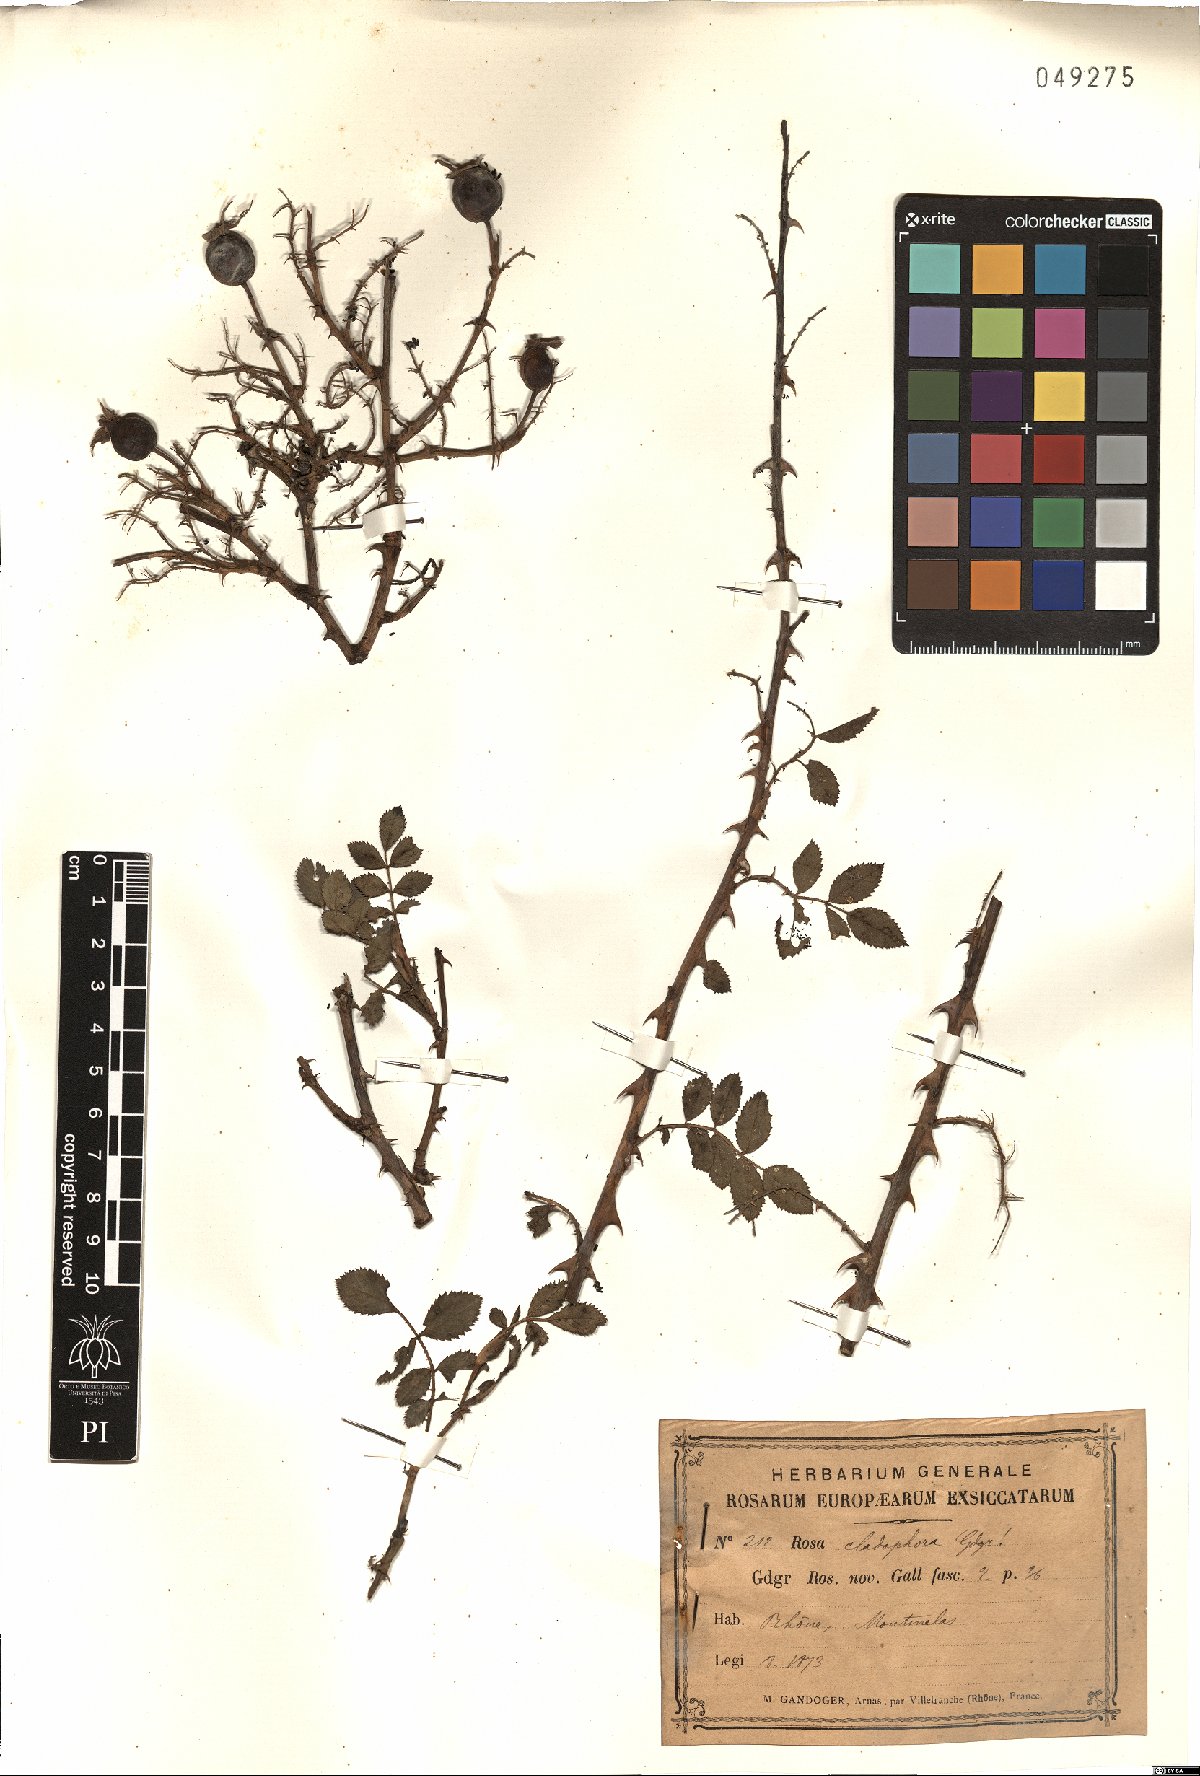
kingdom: Plantae
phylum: Tracheophyta
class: Magnoliopsida
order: Rosales
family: Rosaceae
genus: Rosa
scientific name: Rosa cladophora
